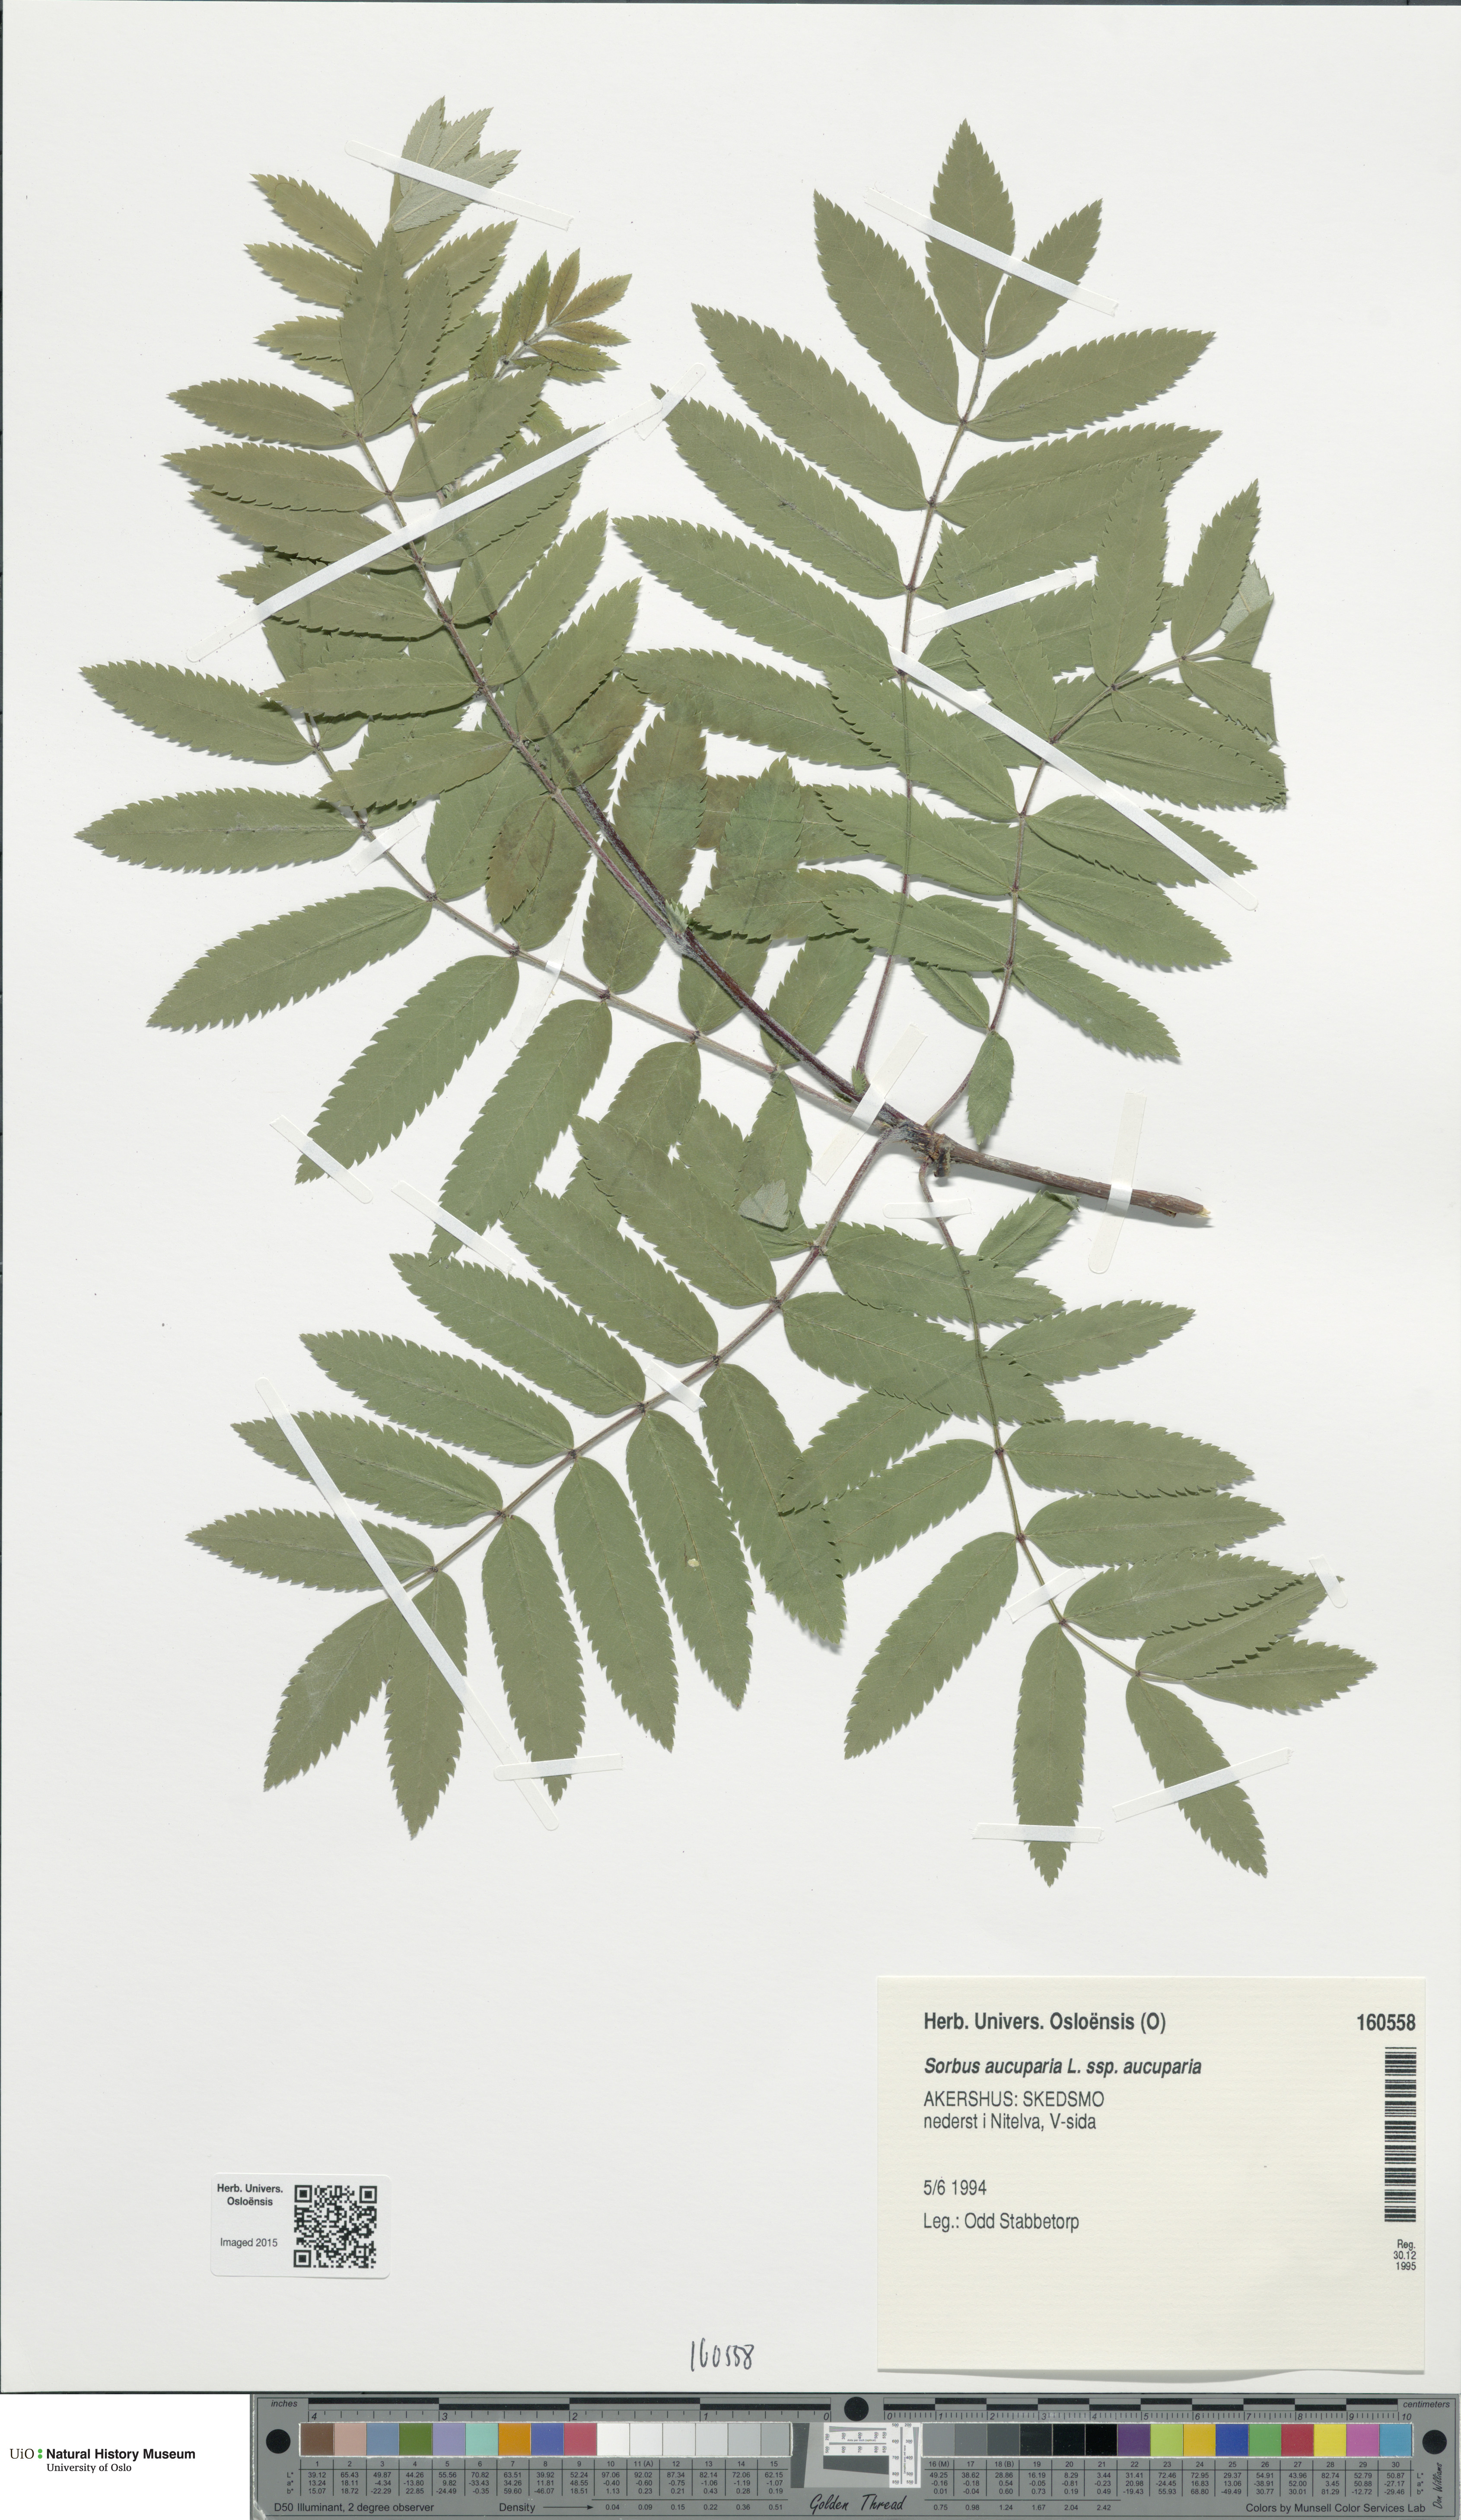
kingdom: Plantae
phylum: Tracheophyta
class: Magnoliopsida
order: Rosales
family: Rosaceae
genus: Sorbus
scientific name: Sorbus aucuparia
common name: Rowan
